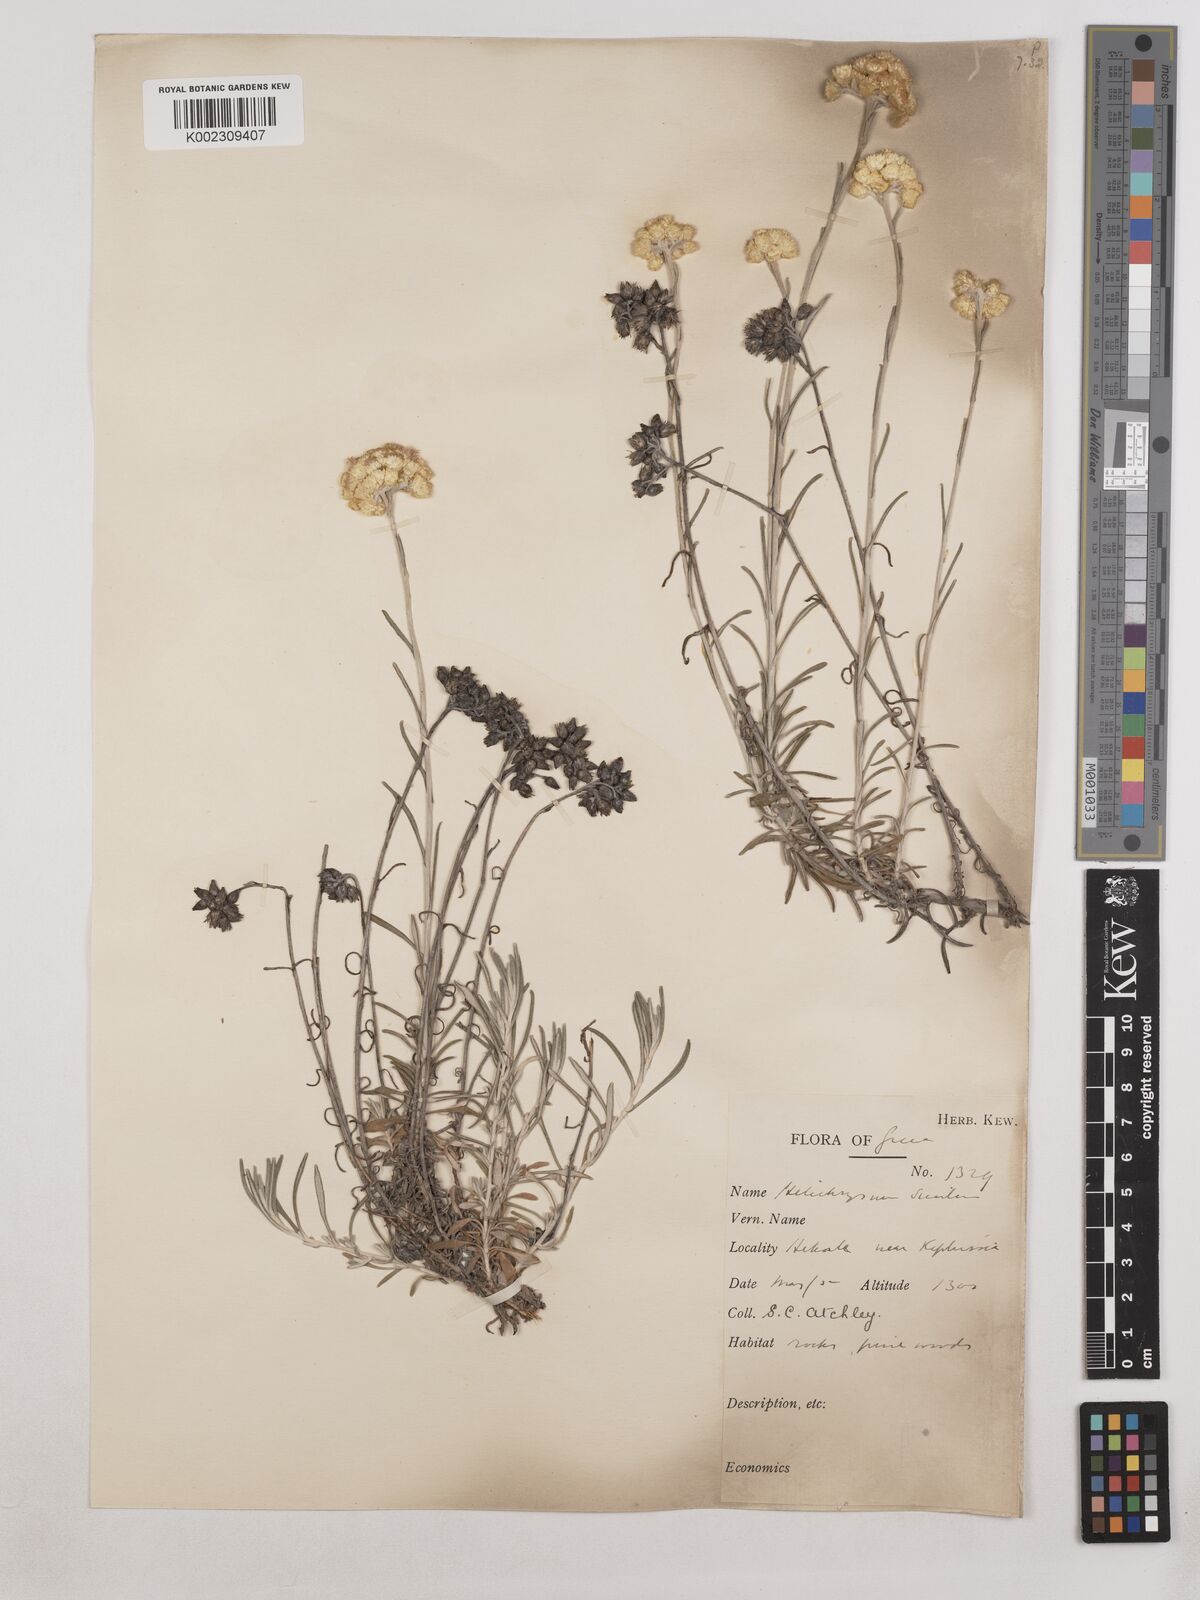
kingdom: Plantae
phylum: Tracheophyta
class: Magnoliopsida
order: Asterales
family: Asteraceae
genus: Helichrysum
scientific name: Helichrysum stoechas
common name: Goldilocks
